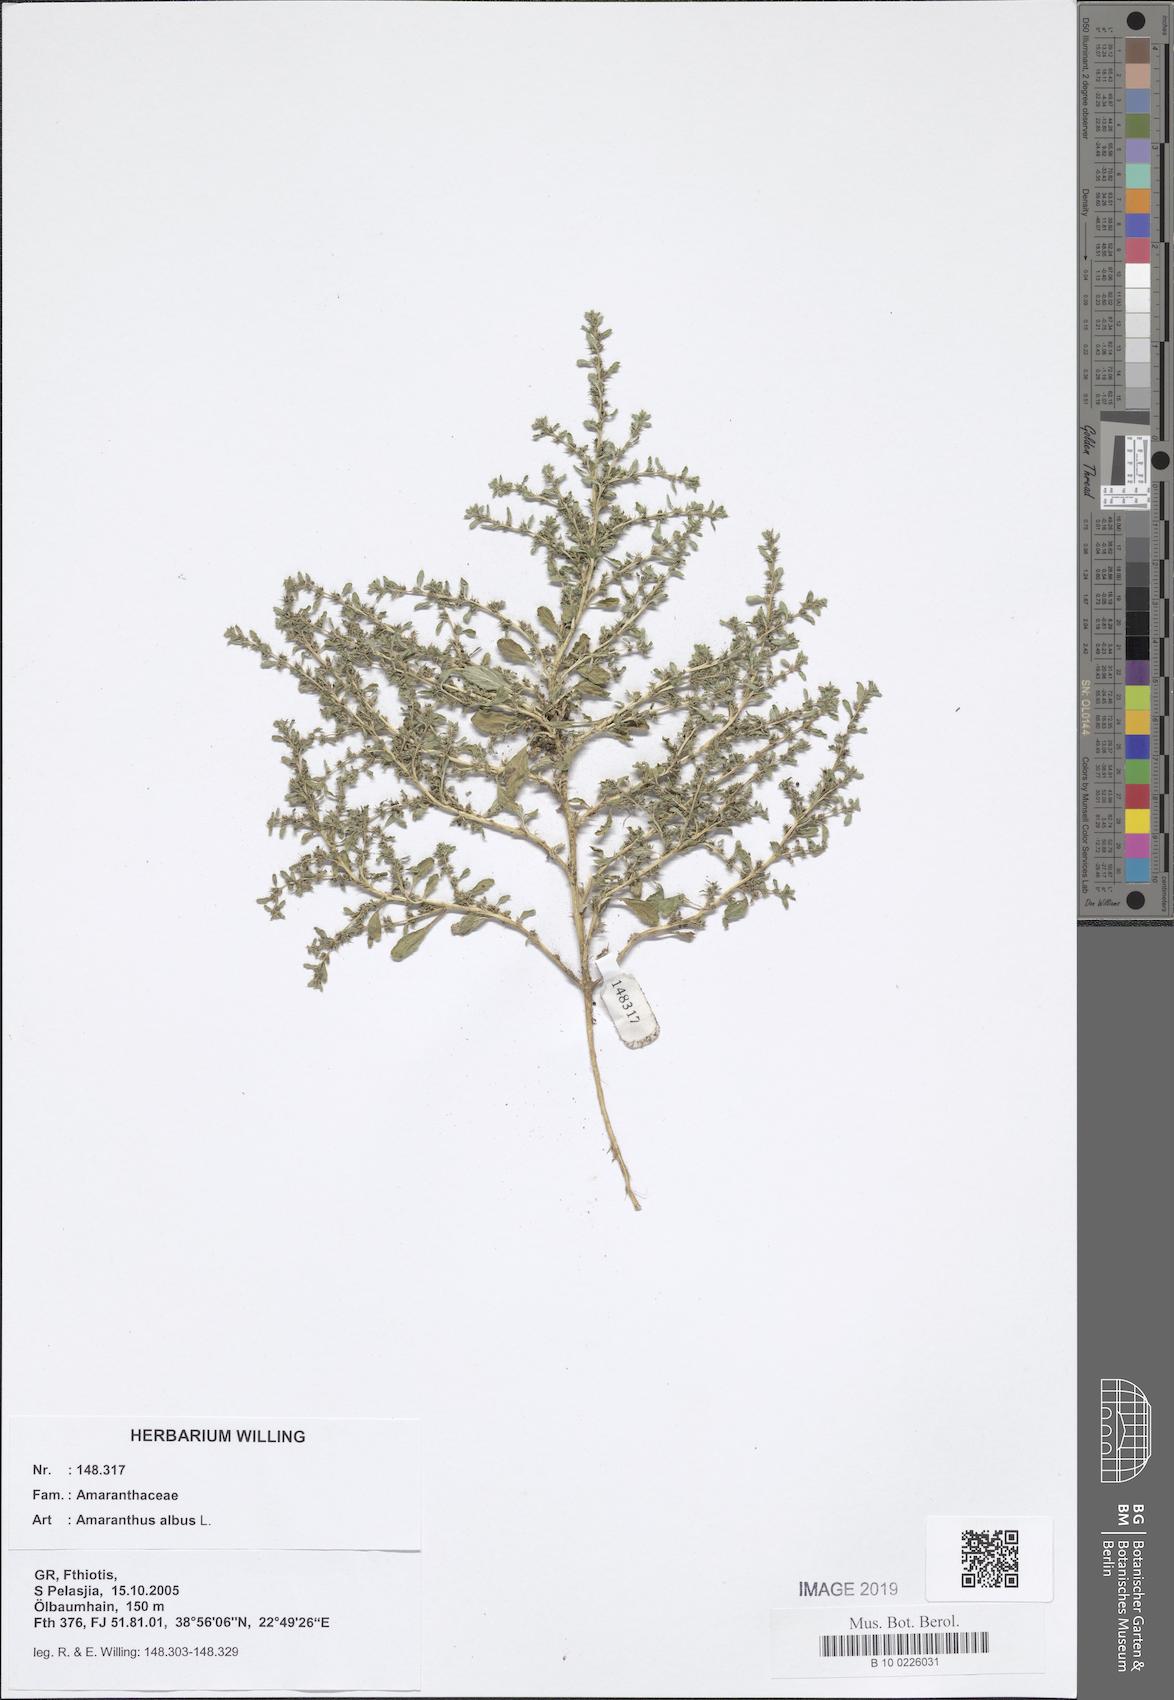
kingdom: Plantae
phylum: Tracheophyta
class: Magnoliopsida
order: Caryophyllales
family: Amaranthaceae
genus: Amaranthus
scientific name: Amaranthus albus
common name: White pigweed
